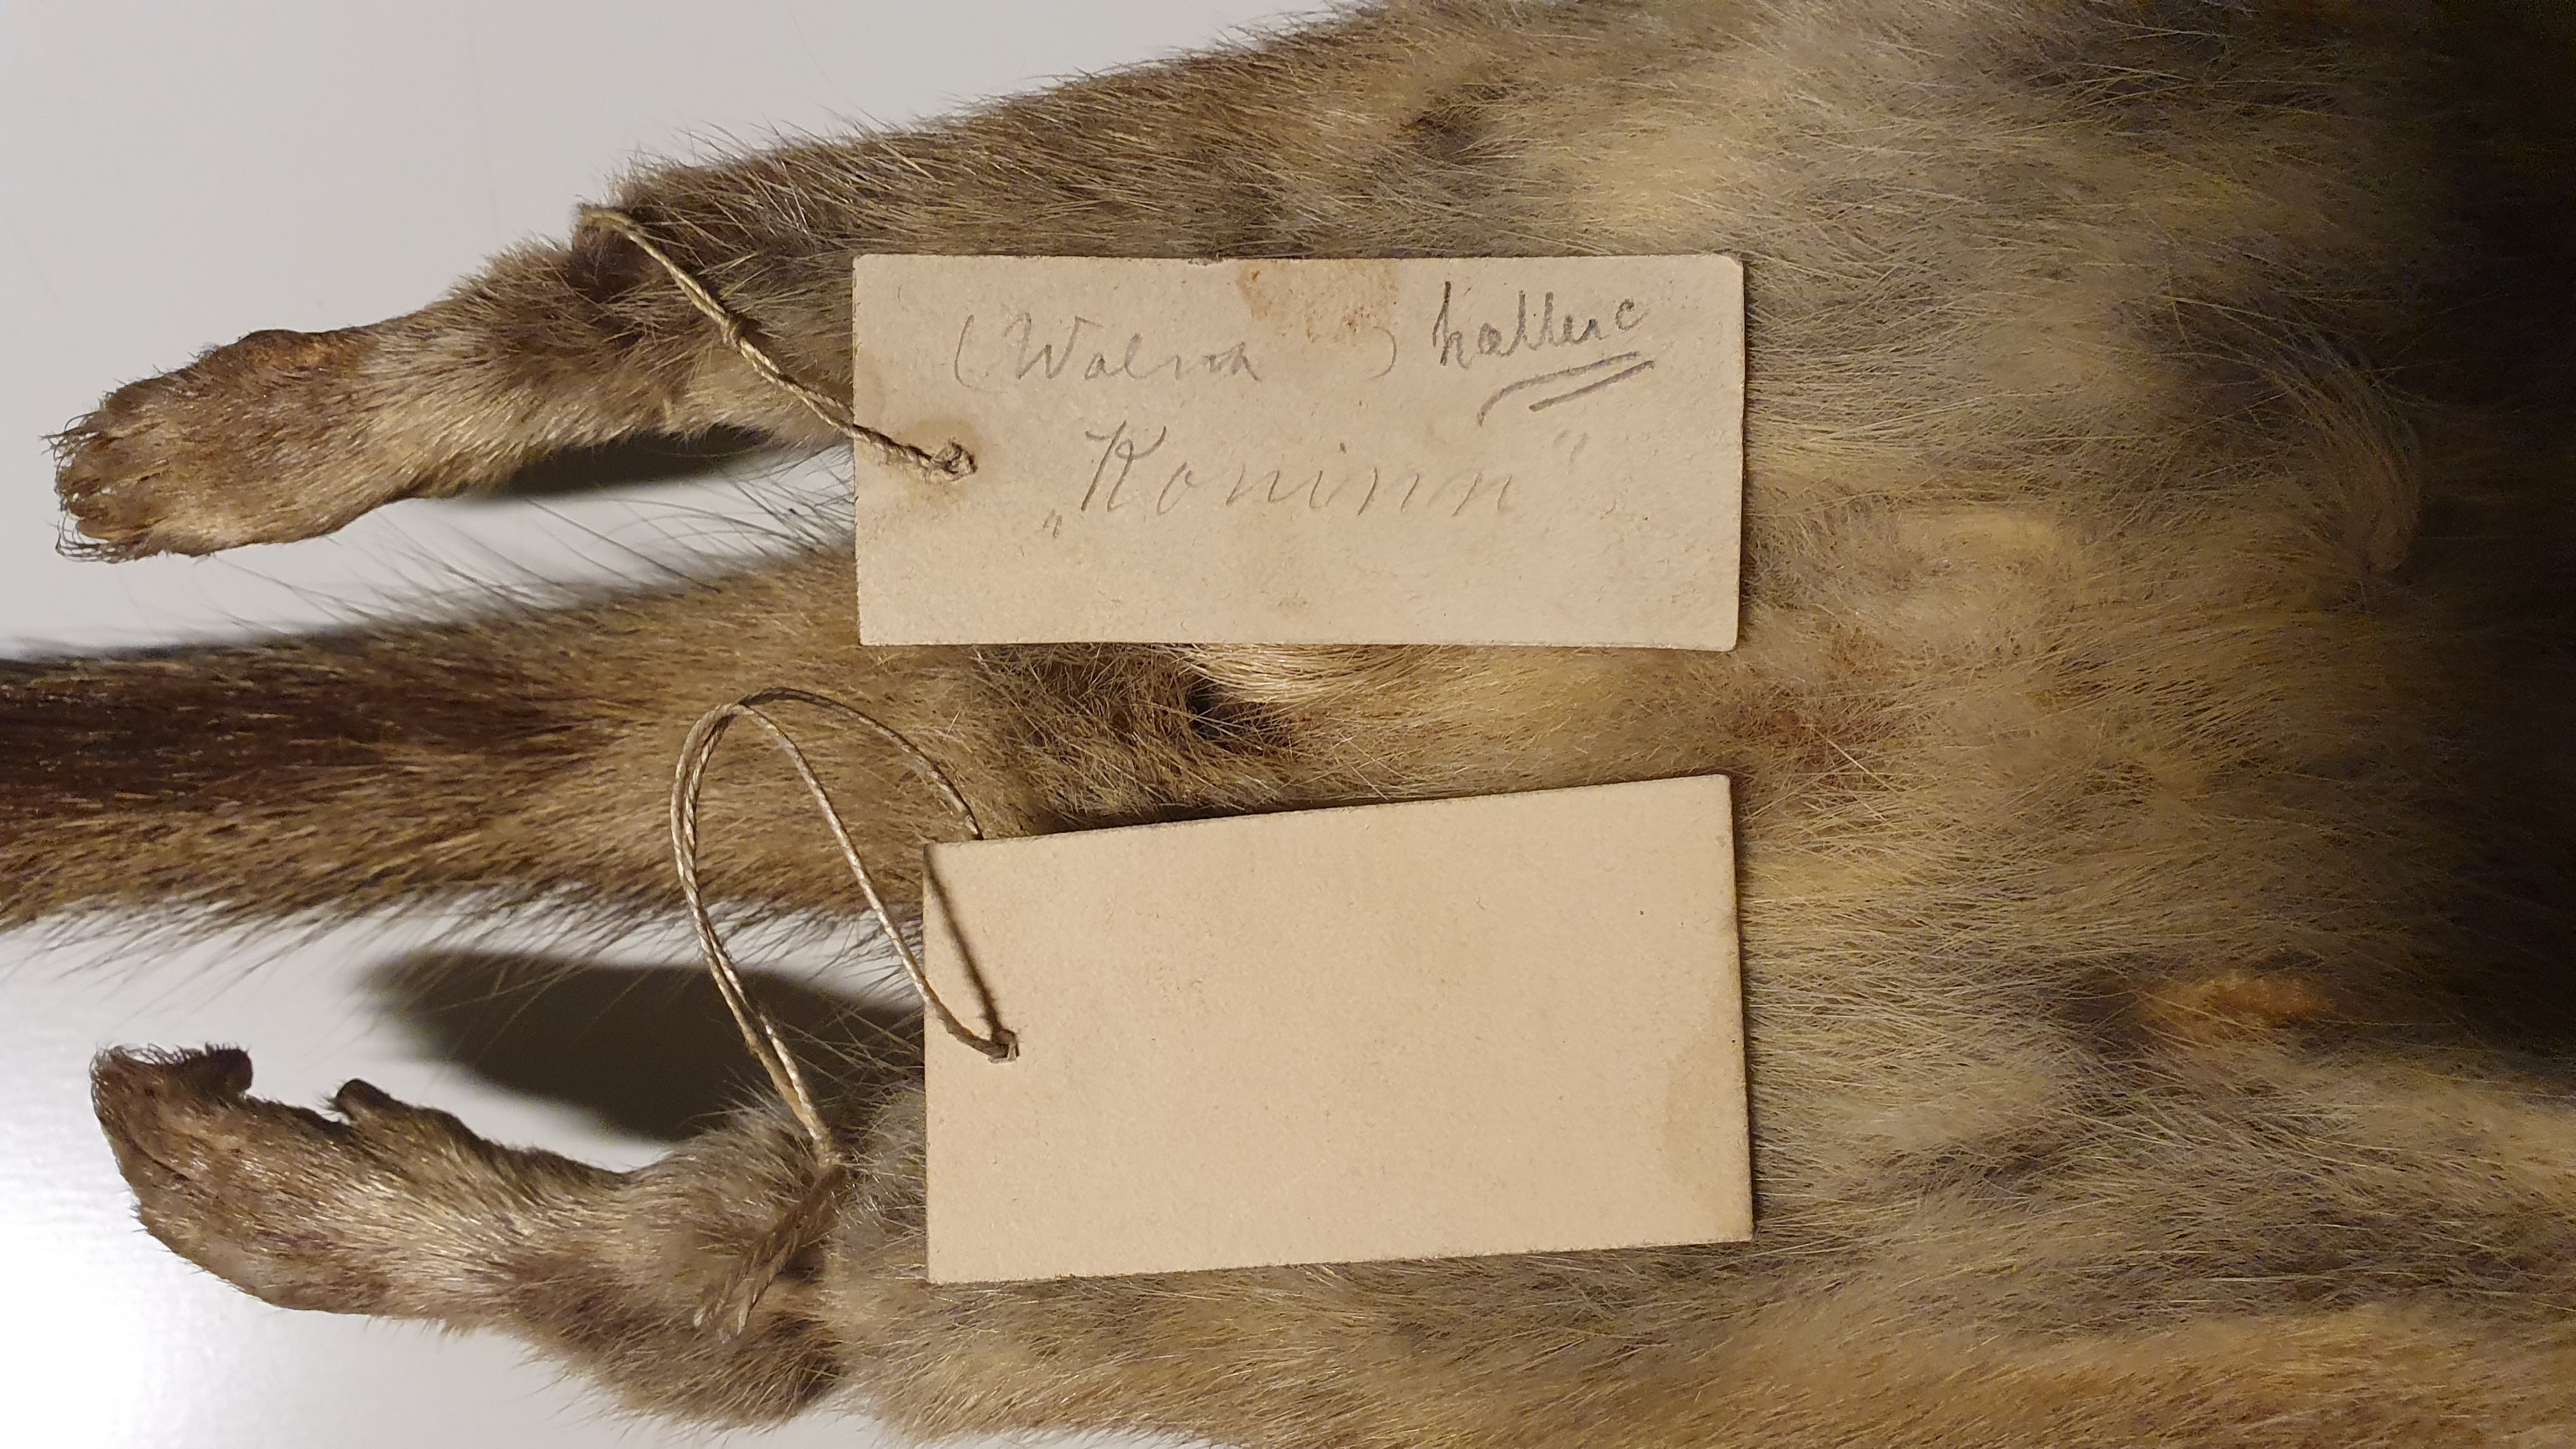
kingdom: Animalia
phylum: Chordata
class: Mammalia
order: Dasyuromorphia
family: Dasyuridae
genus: Dasyurus
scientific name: Dasyurus hallucatus
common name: Northern quoll
